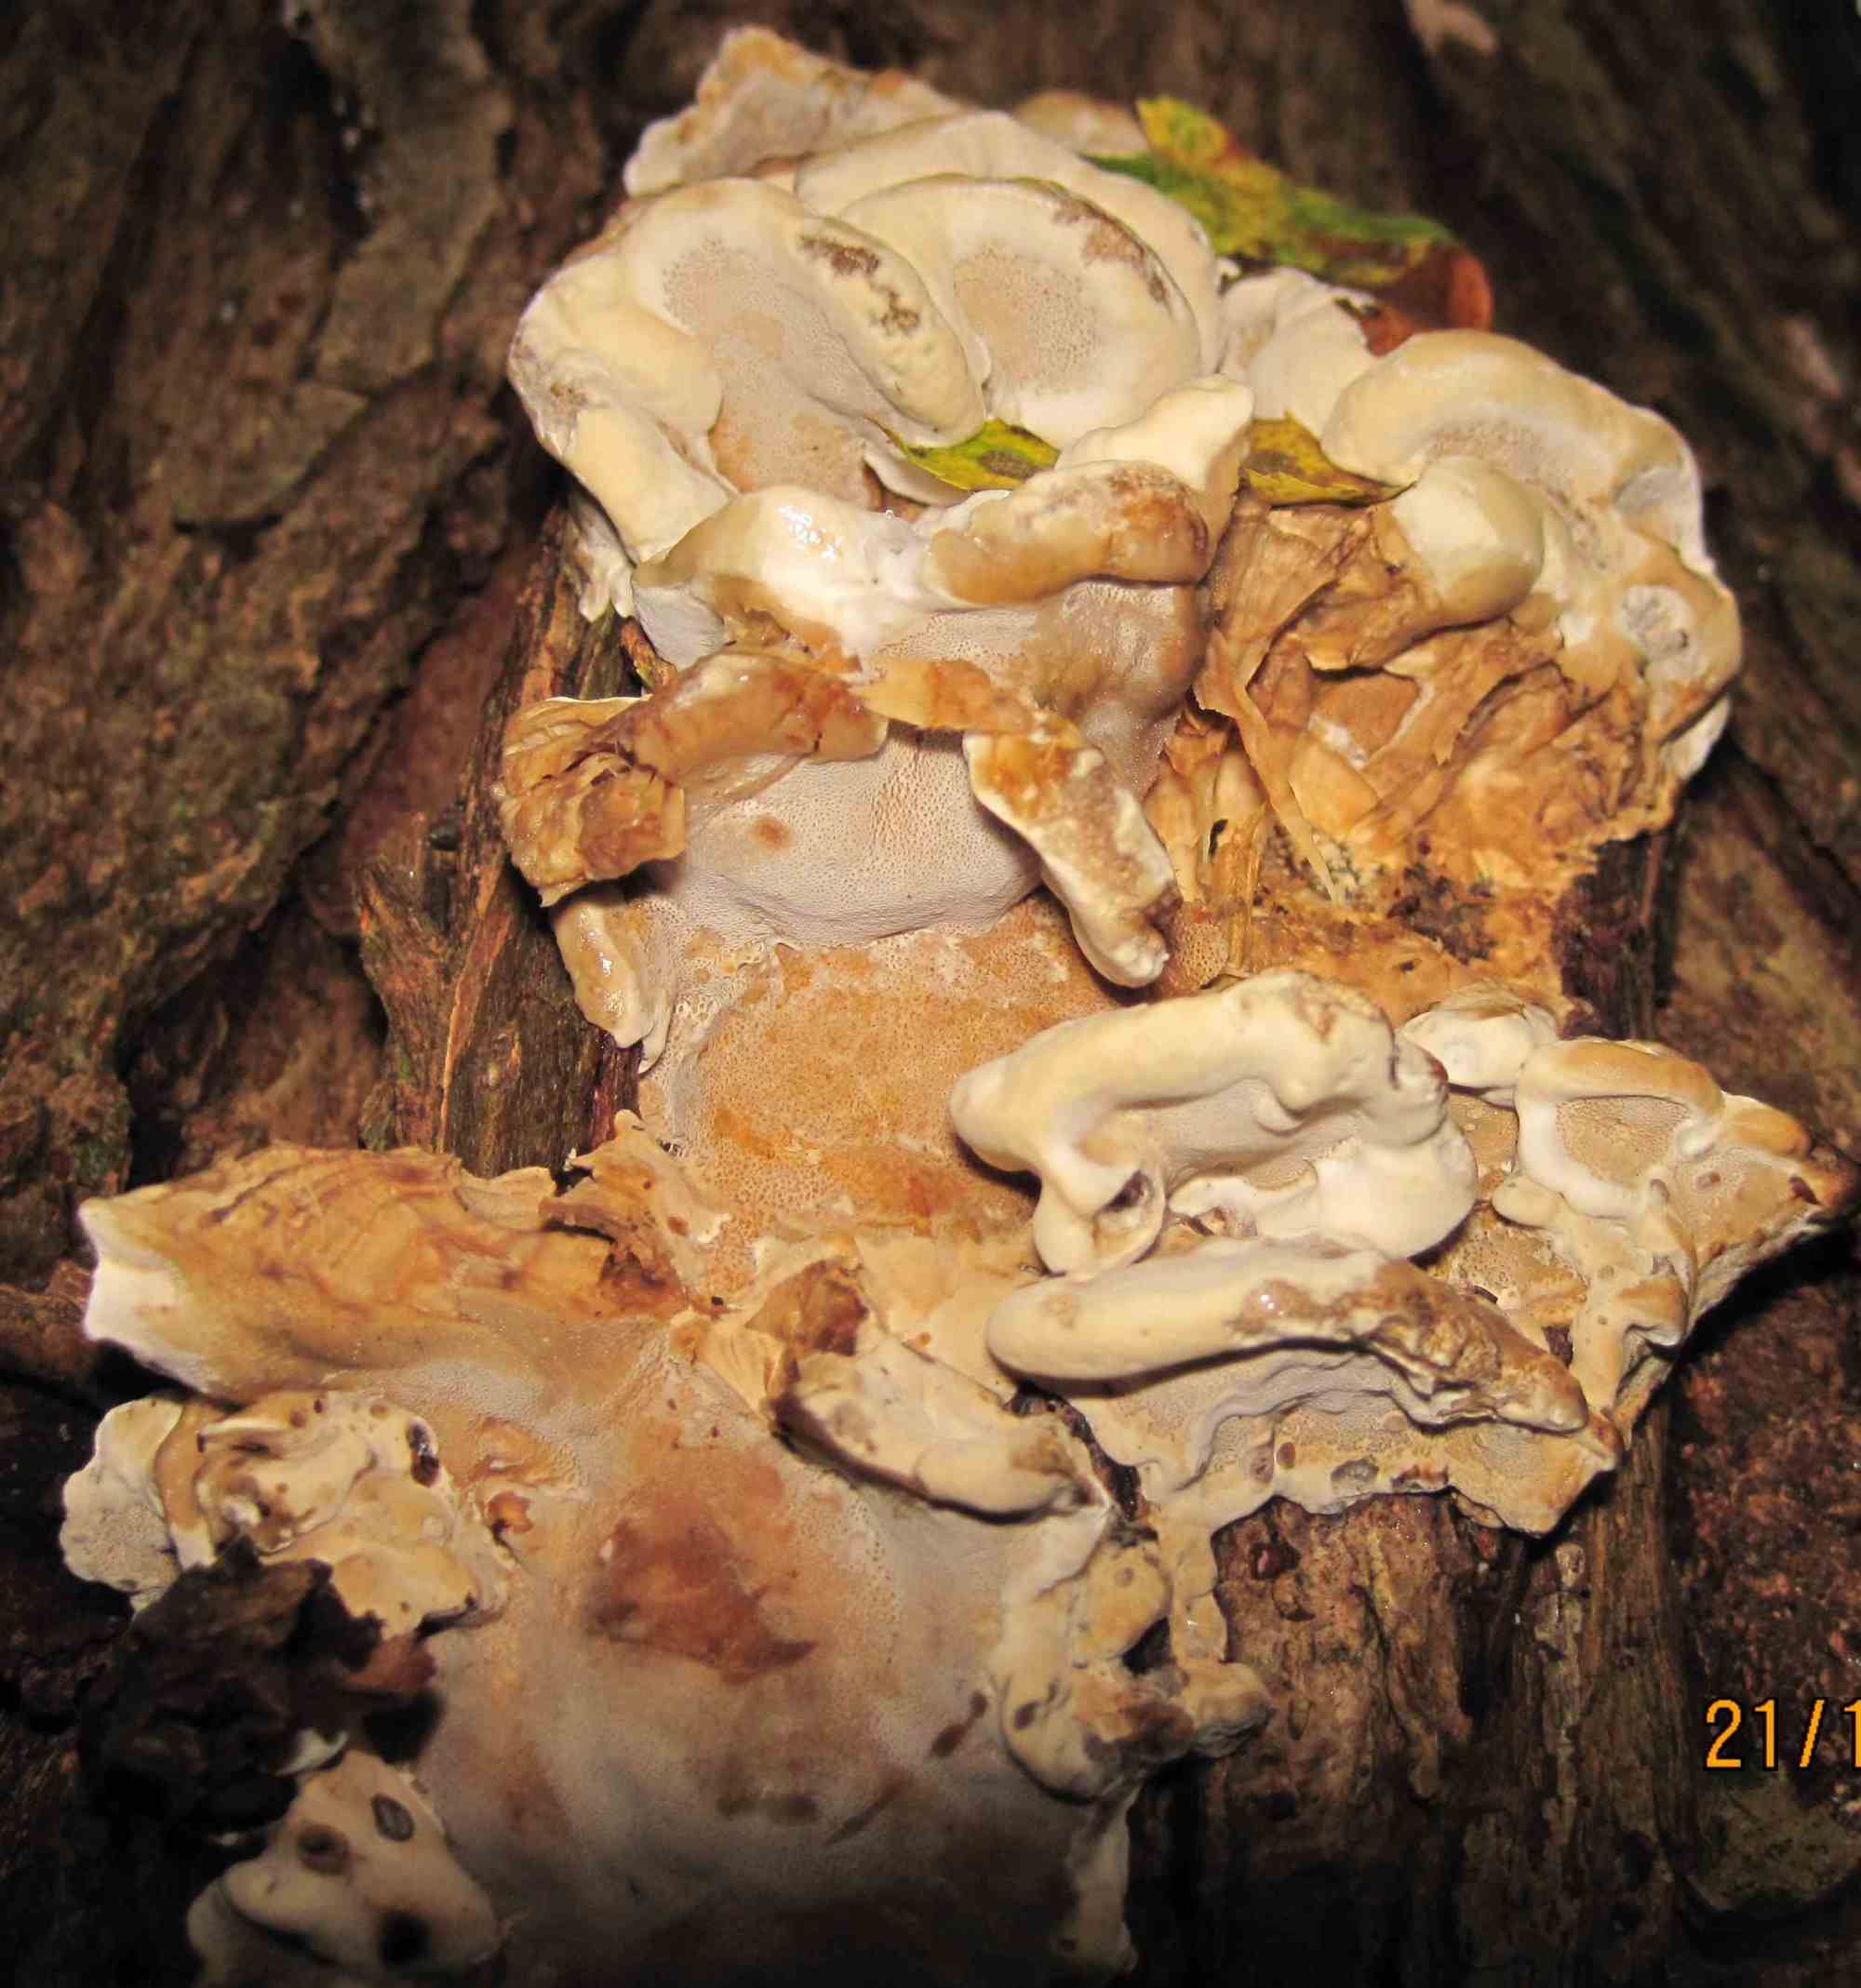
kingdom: Fungi
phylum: Basidiomycota
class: Agaricomycetes
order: Polyporales
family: Phanerochaetaceae
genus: Bjerkandera
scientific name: Bjerkandera fumosa
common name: grågul sodporesvamp
